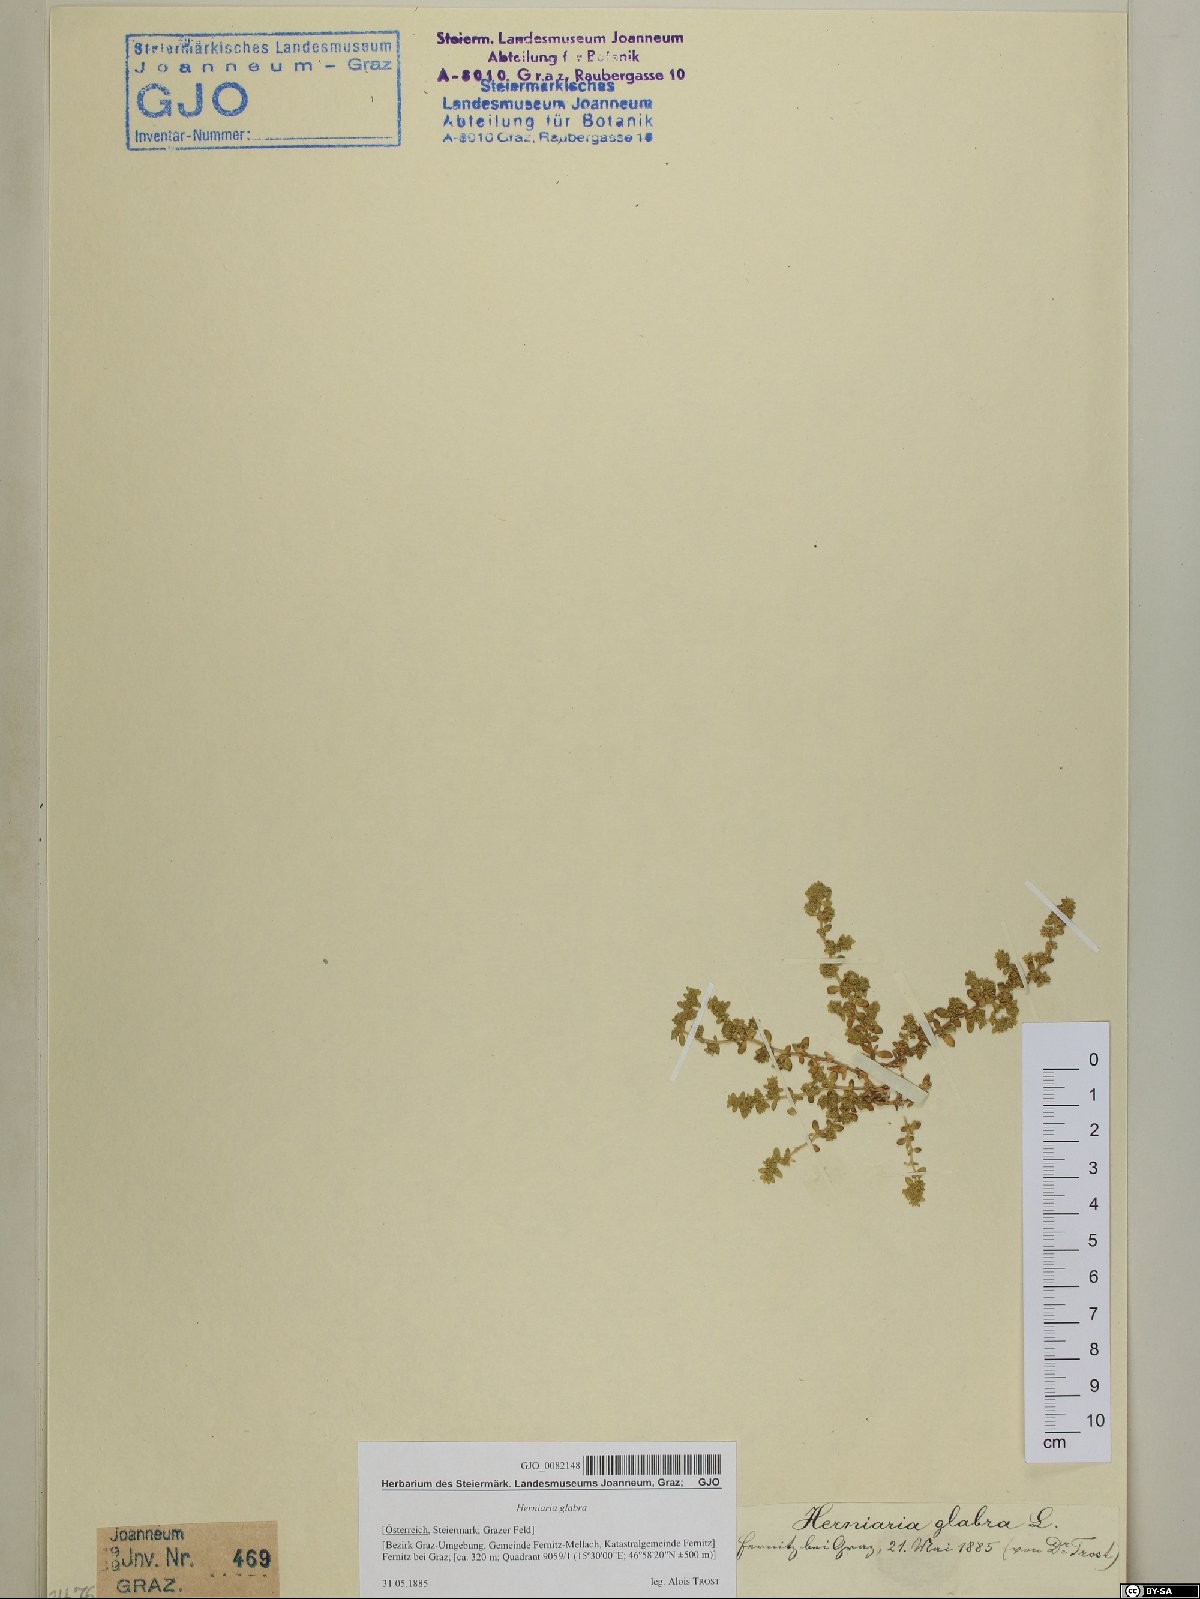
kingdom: Plantae
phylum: Tracheophyta
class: Magnoliopsida
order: Caryophyllales
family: Caryophyllaceae
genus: Herniaria
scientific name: Herniaria glabra
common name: Smooth rupturewort
